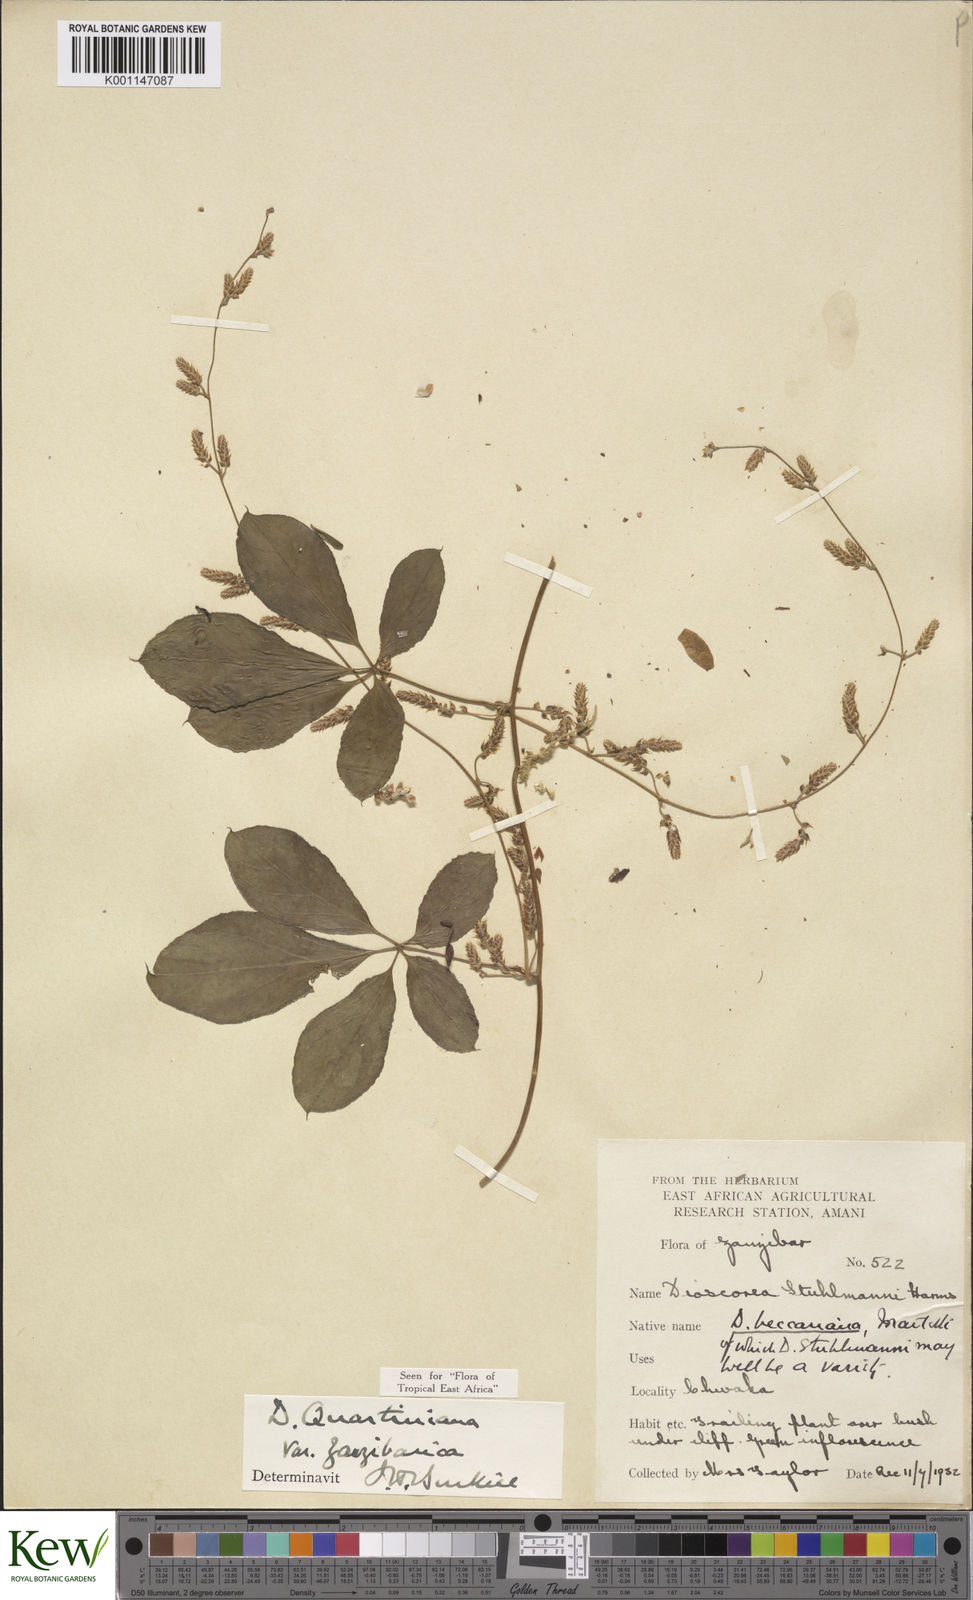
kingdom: Plantae
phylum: Tracheophyta
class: Liliopsida
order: Dioscoreales
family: Dioscoreaceae
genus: Dioscorea
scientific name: Dioscorea quartiniana
